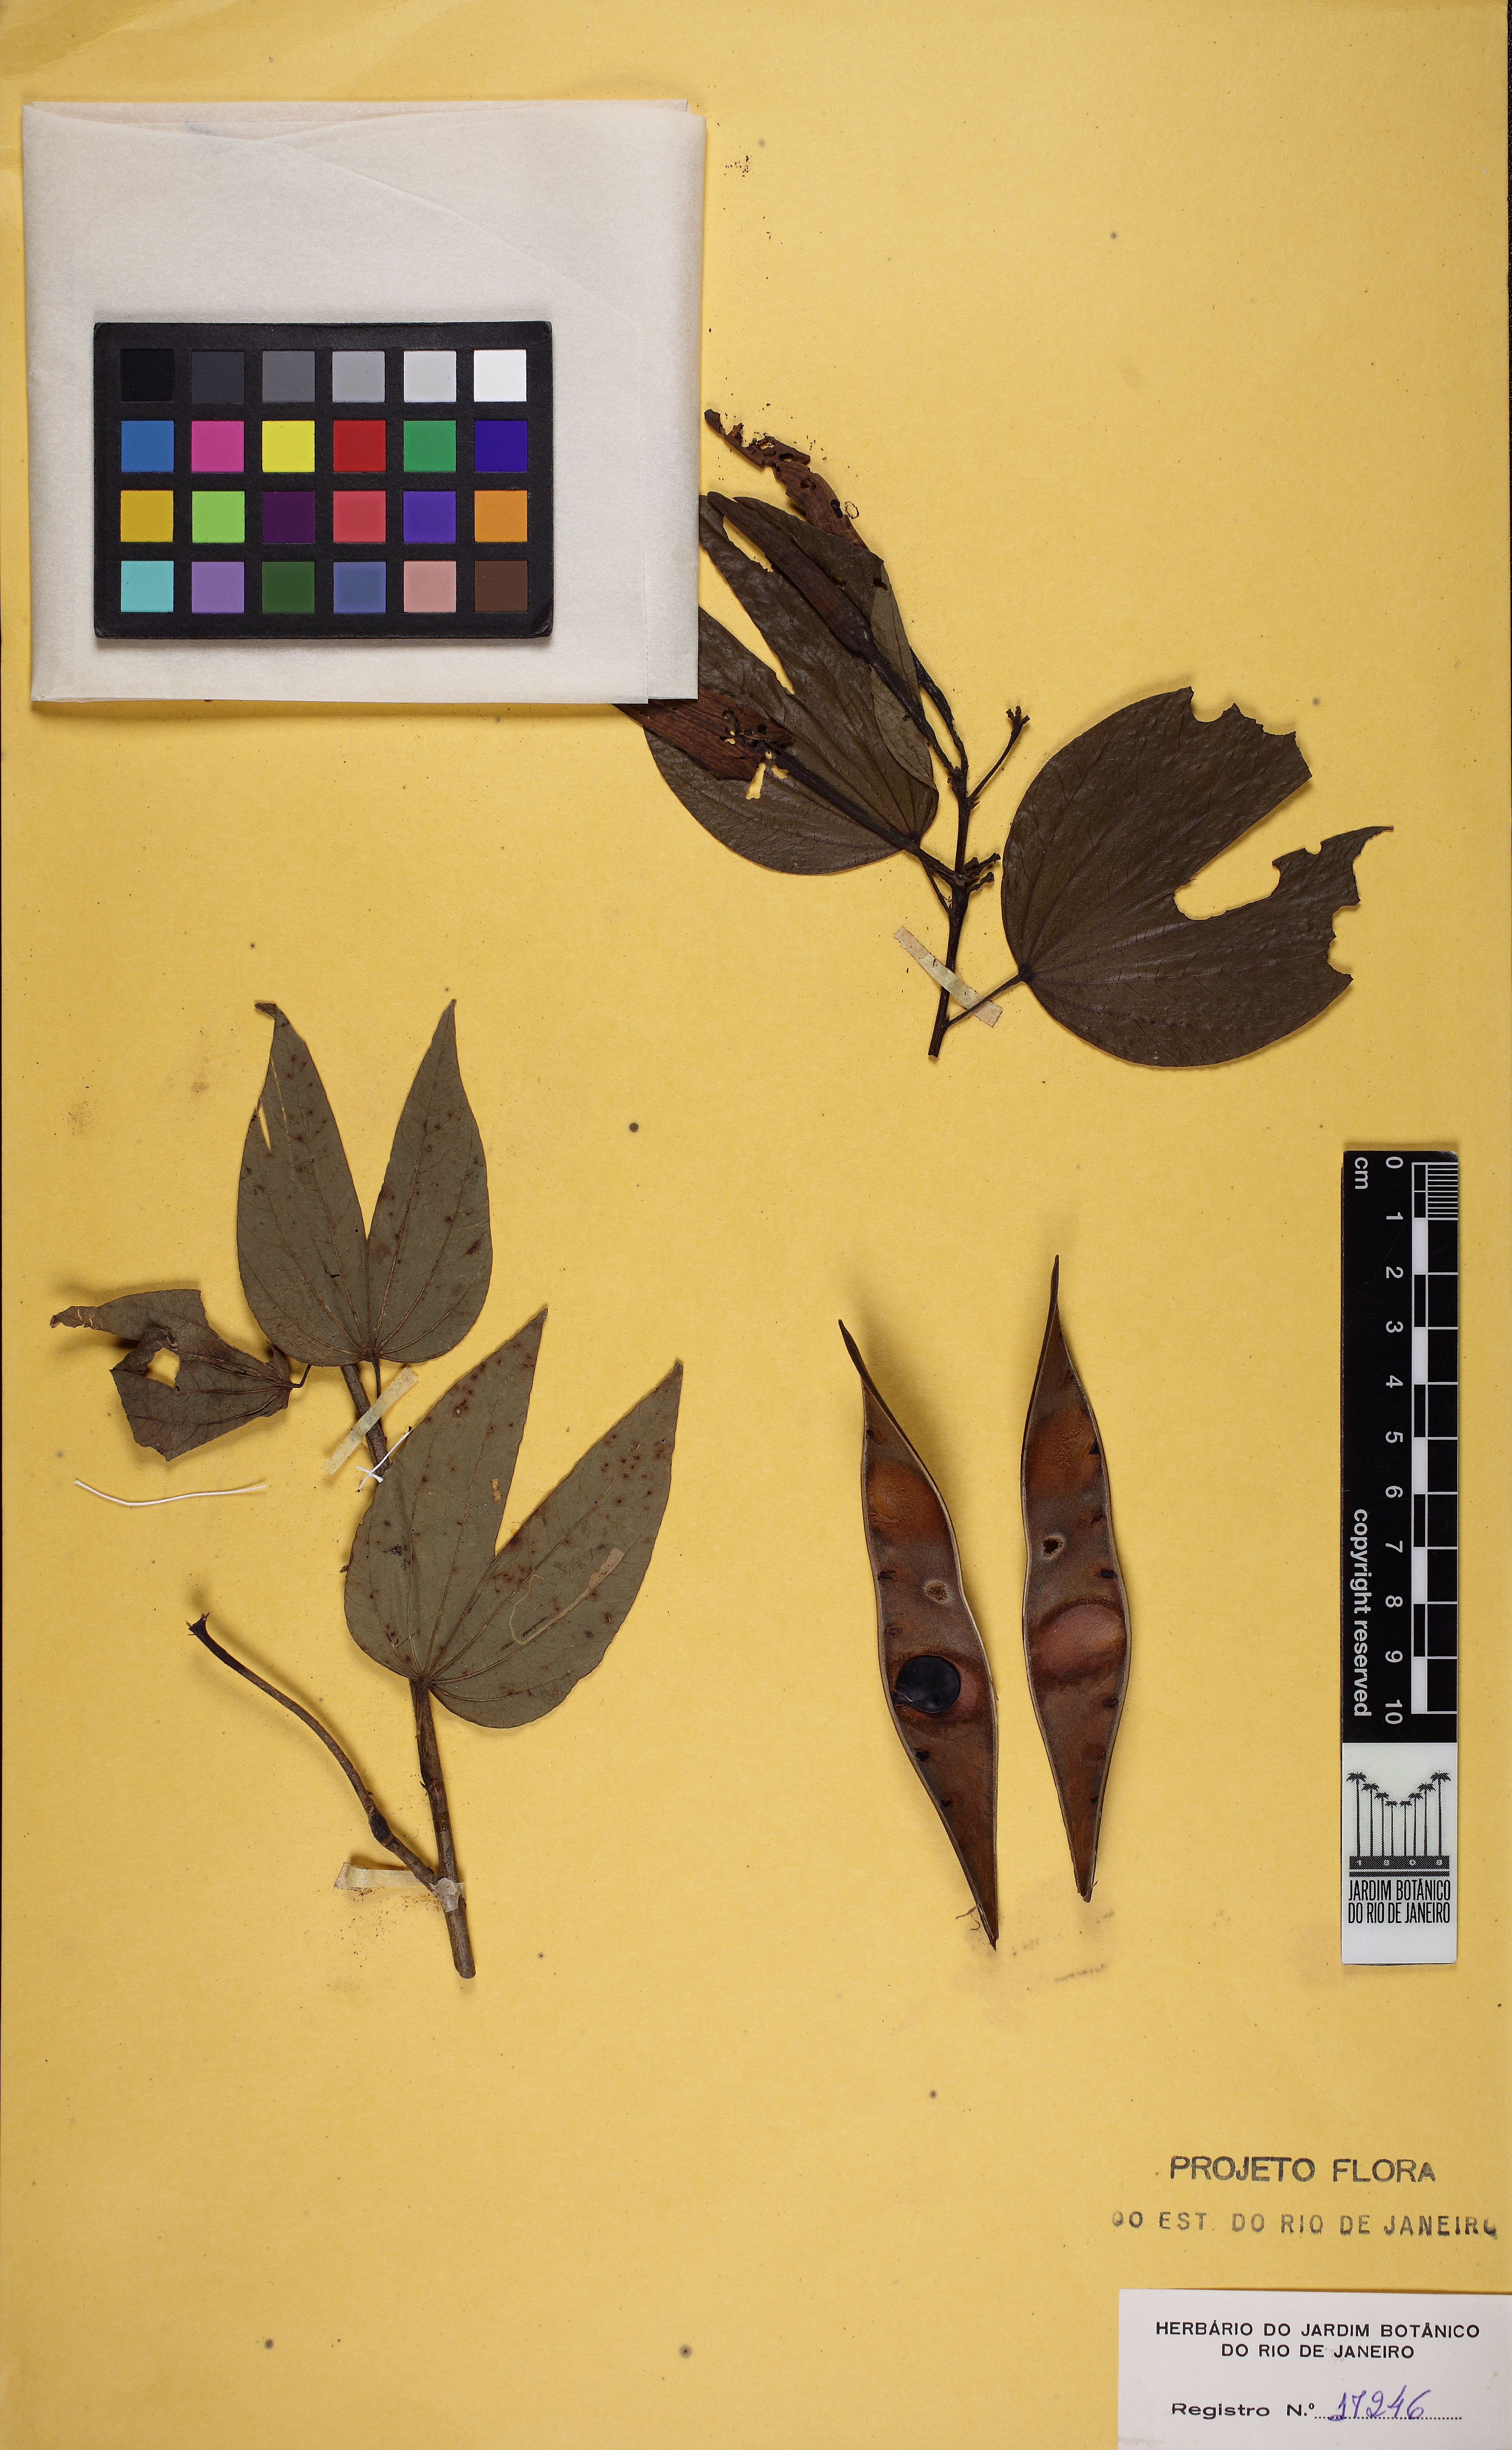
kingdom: Plantae
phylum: Tracheophyta
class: Magnoliopsida
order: Fabales
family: Fabaceae
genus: Bauhinia
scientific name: Bauhinia forficata
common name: Orchid tree
